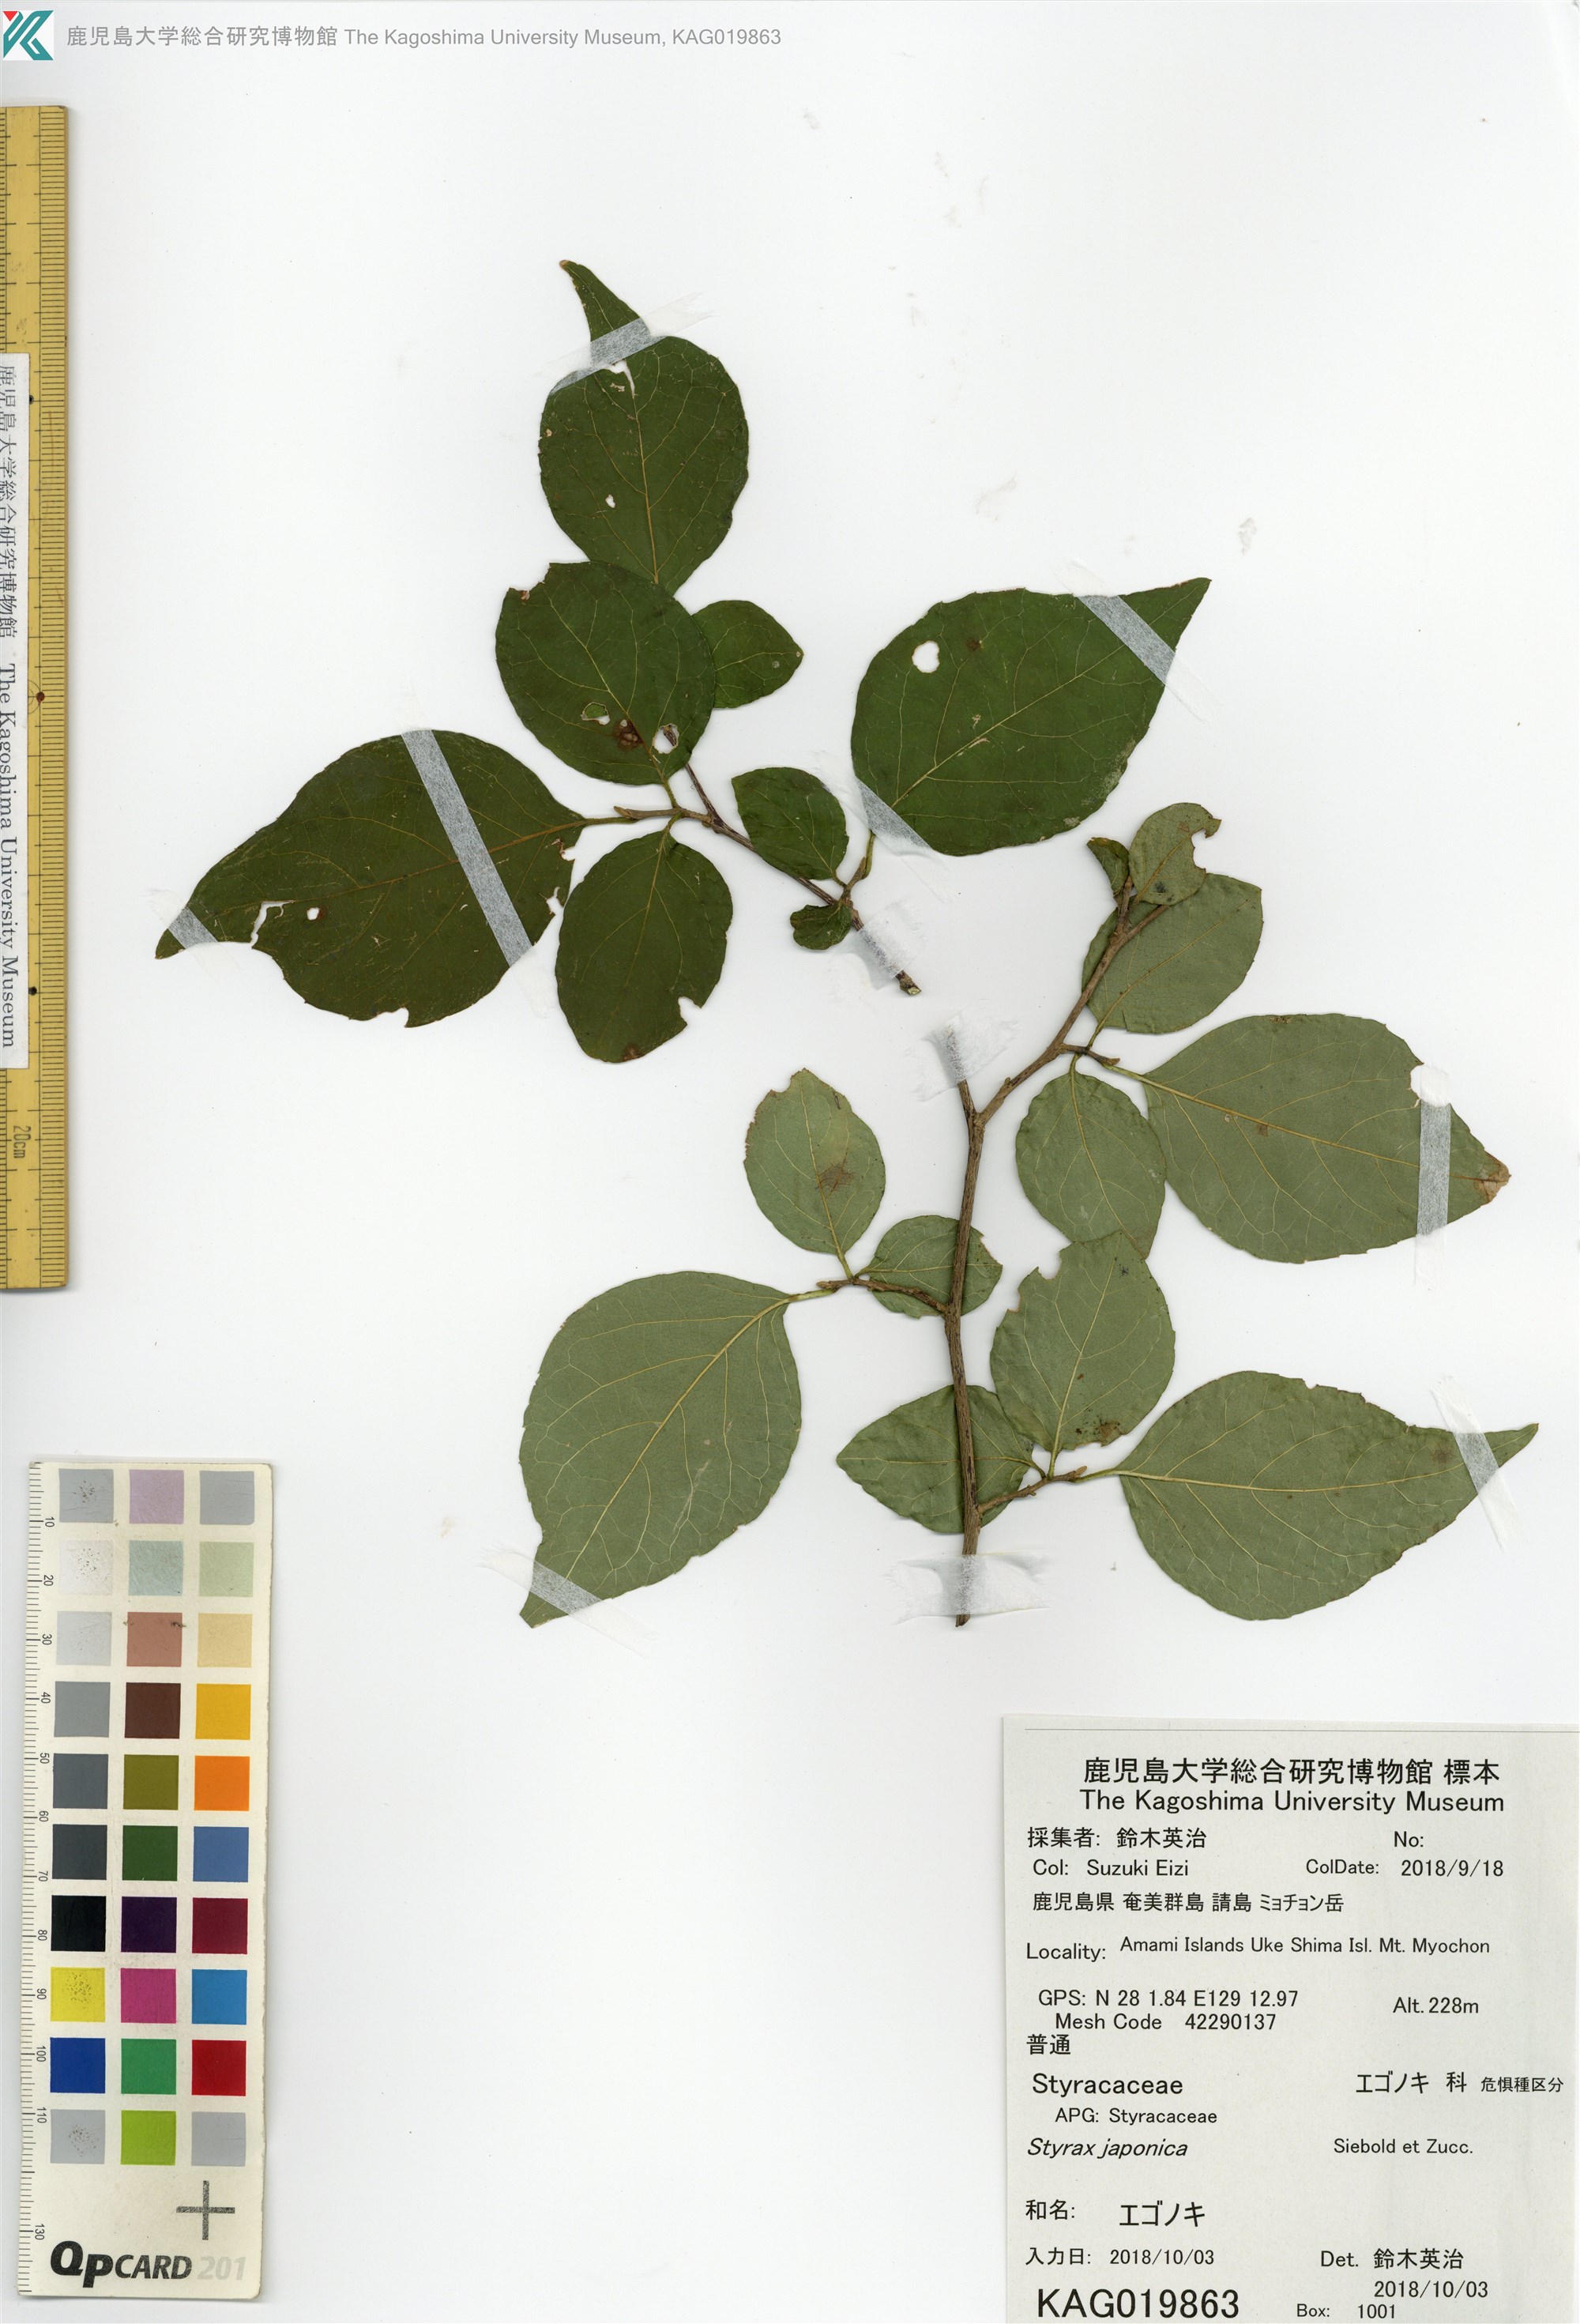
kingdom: Plantae
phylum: Tracheophyta
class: Magnoliopsida
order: Ericales
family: Styracaceae
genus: Styrax
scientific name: Styrax japonicus
